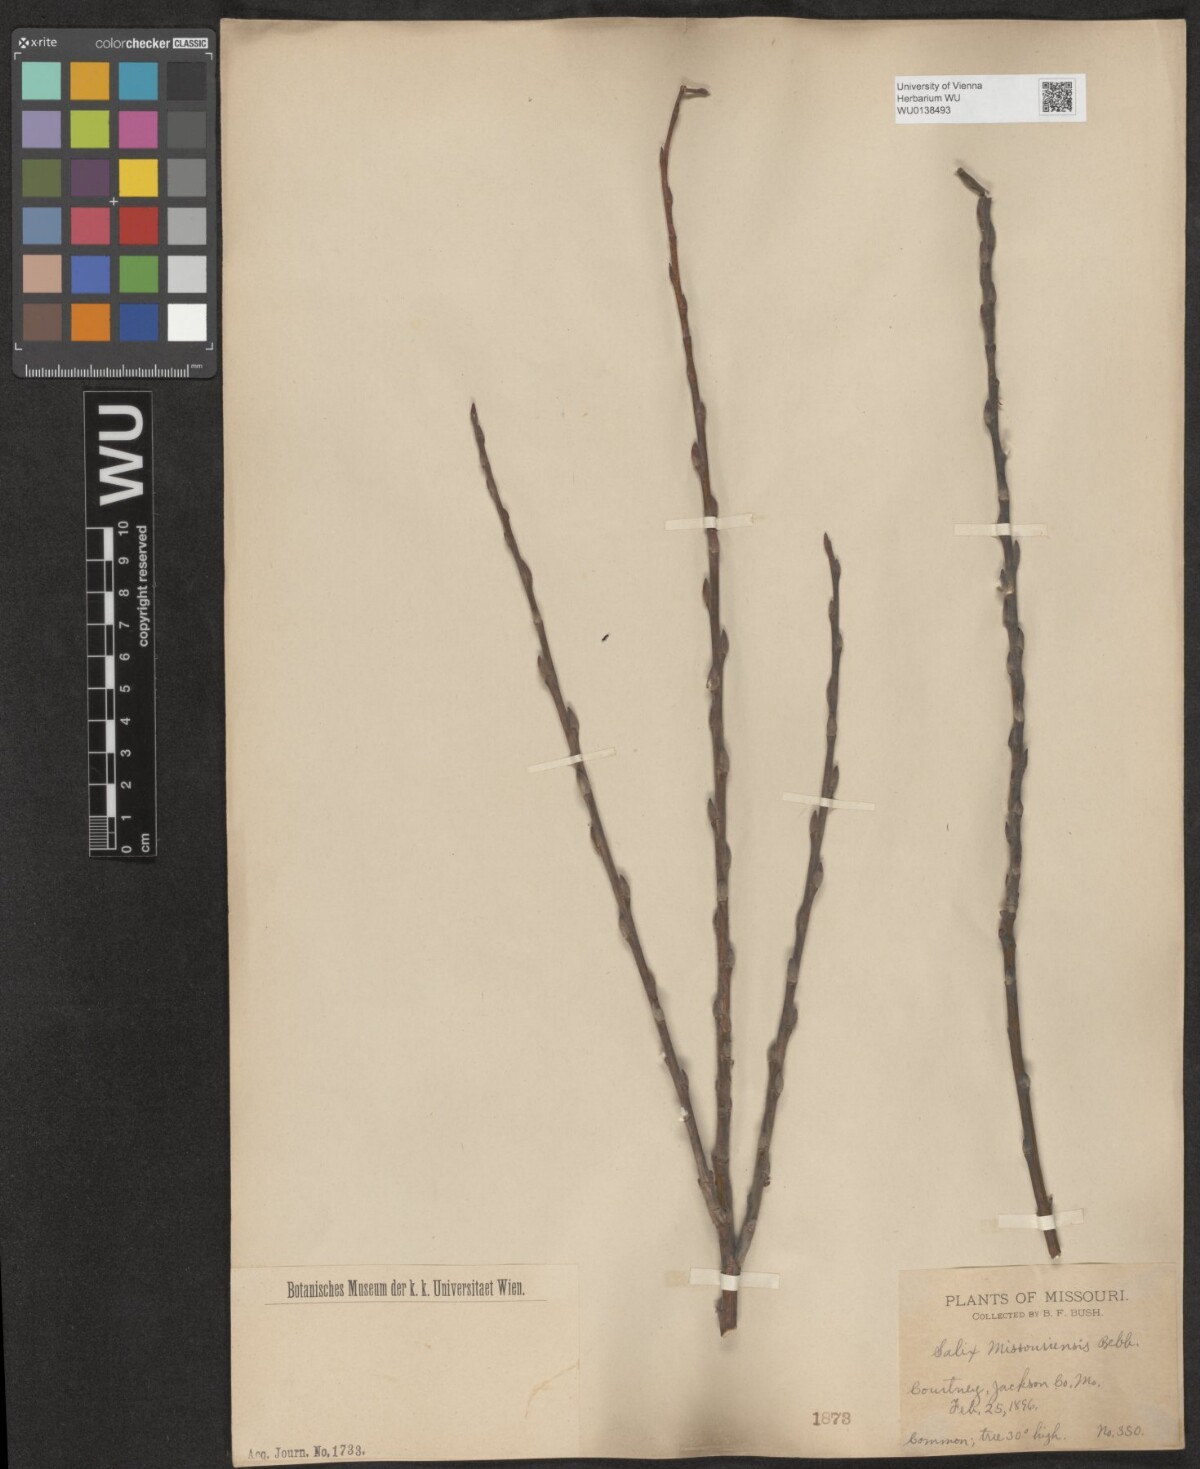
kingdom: Plantae
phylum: Tracheophyta
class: Magnoliopsida
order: Malpighiales
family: Salicaceae
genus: Salix
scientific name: Salix eriocephala
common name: Heart-leaved willow
